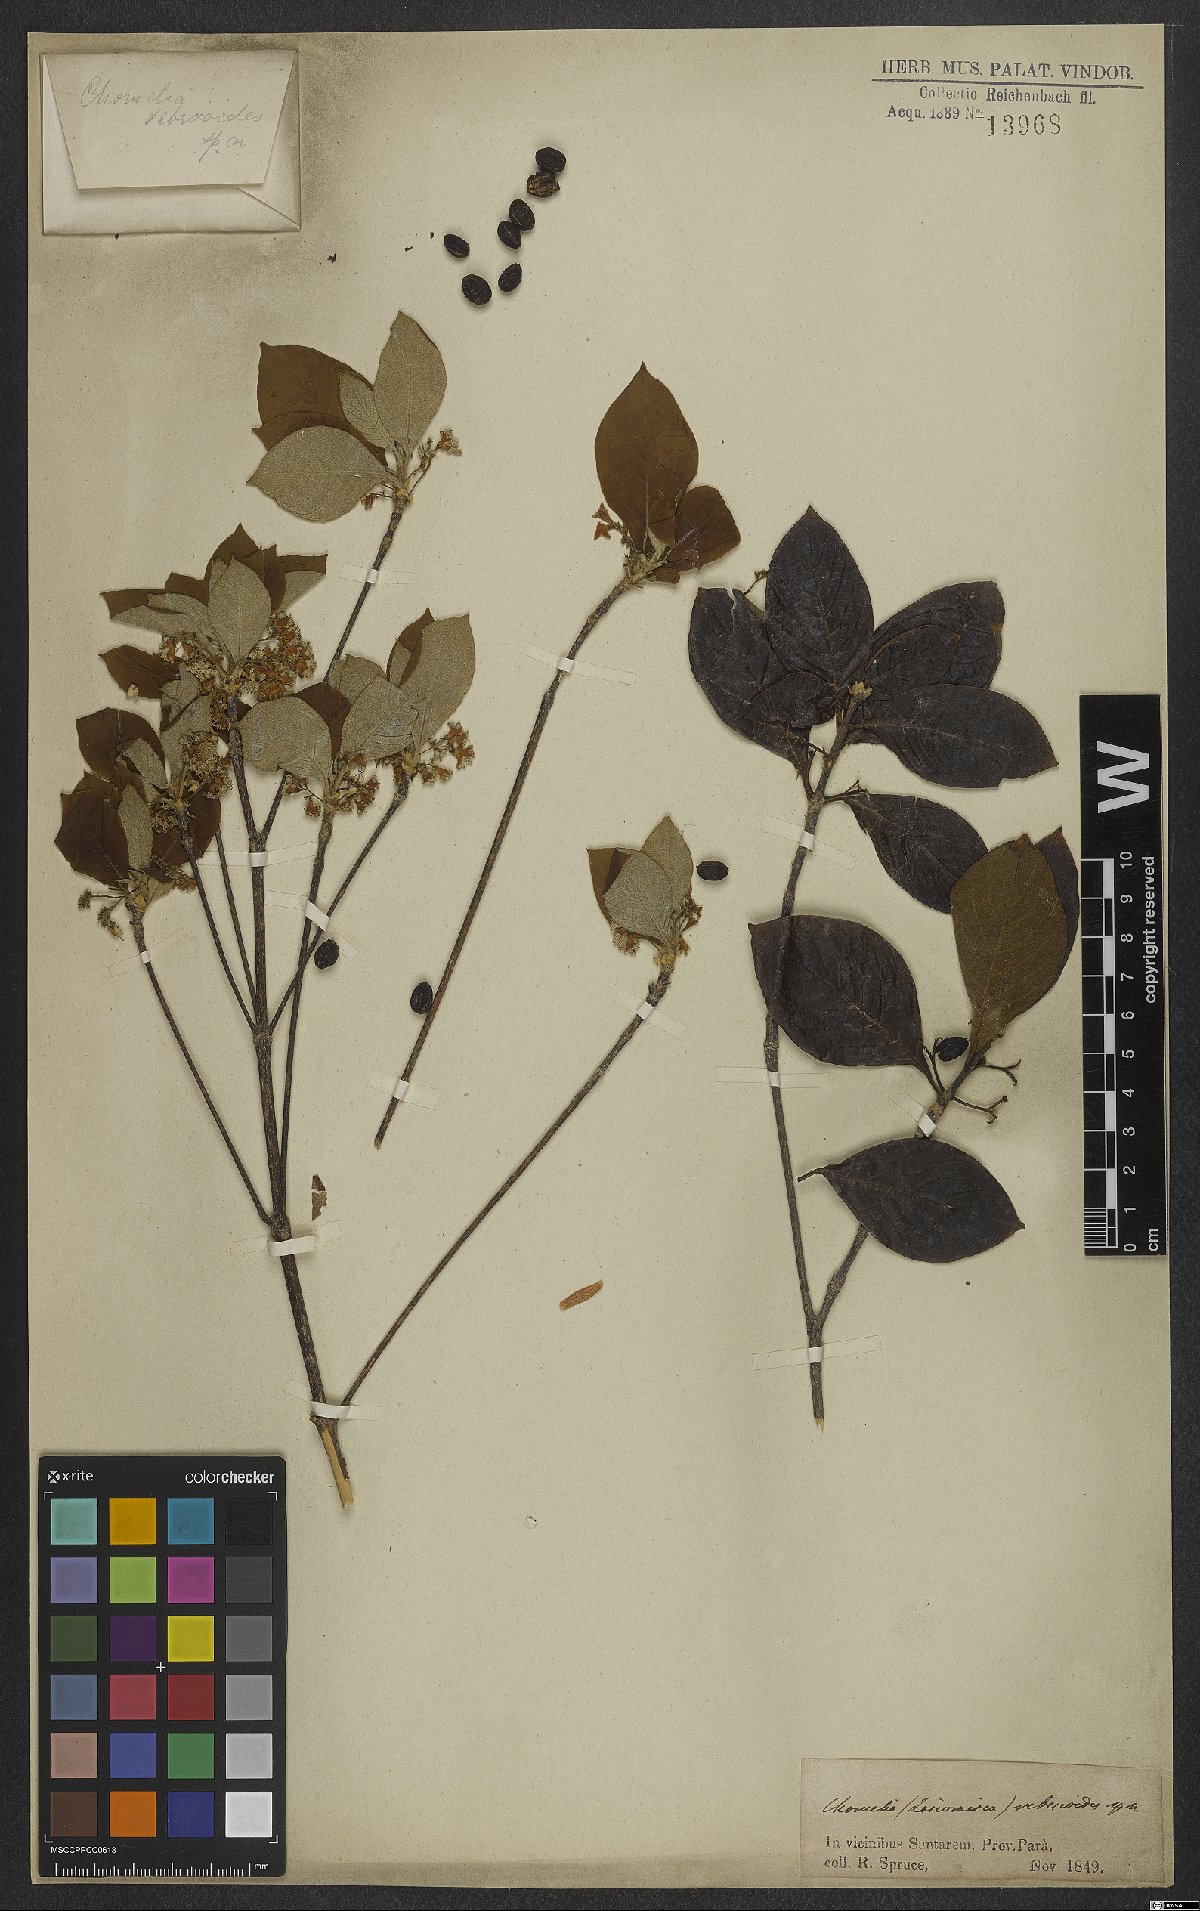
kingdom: Plantae
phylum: Tracheophyta
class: Magnoliopsida
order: Gentianales
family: Rubiaceae
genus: Chomelia
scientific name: Chomelia ribesioides
